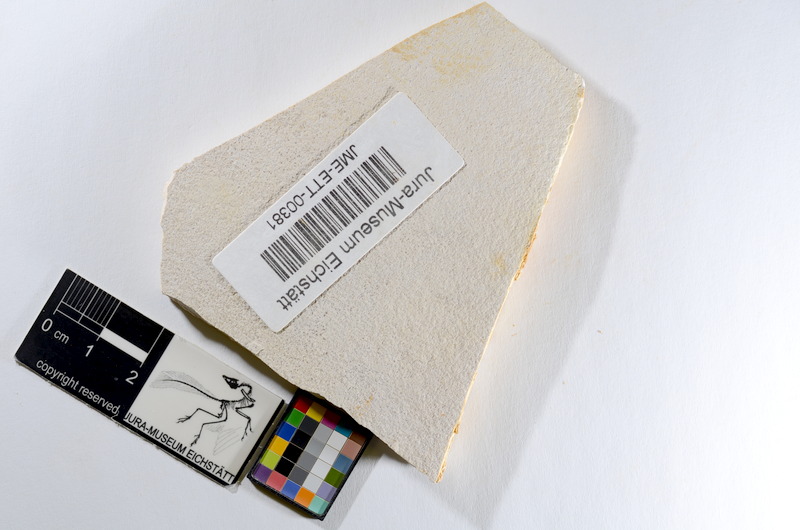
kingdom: Animalia
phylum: Chordata
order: Salmoniformes
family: Orthogonikleithridae
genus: Orthogonikleithrus
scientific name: Orthogonikleithrus hoelli
